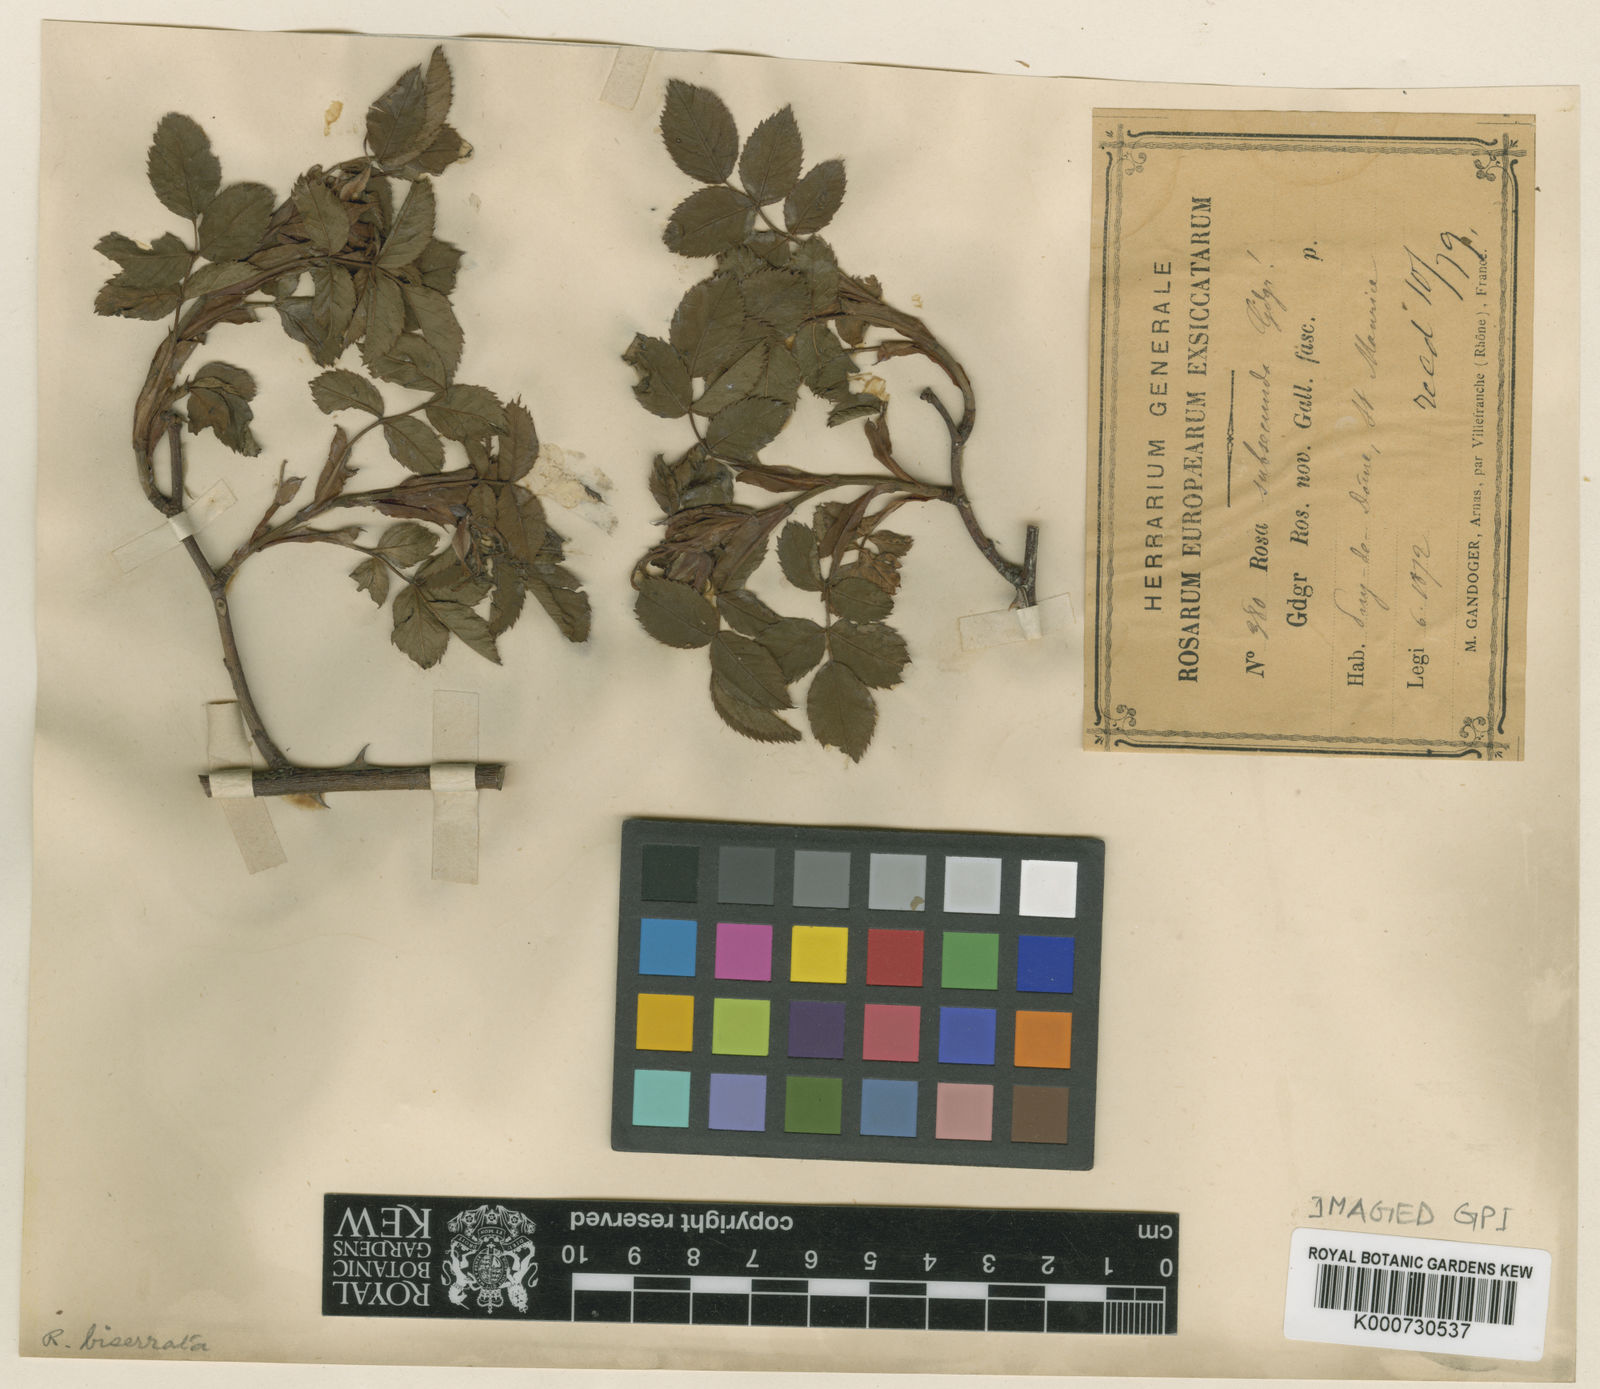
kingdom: Plantae
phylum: Tracheophyta
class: Magnoliopsida
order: Rosales
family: Rosaceae
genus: Rosa
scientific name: Rosa canina
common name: Dog rose
